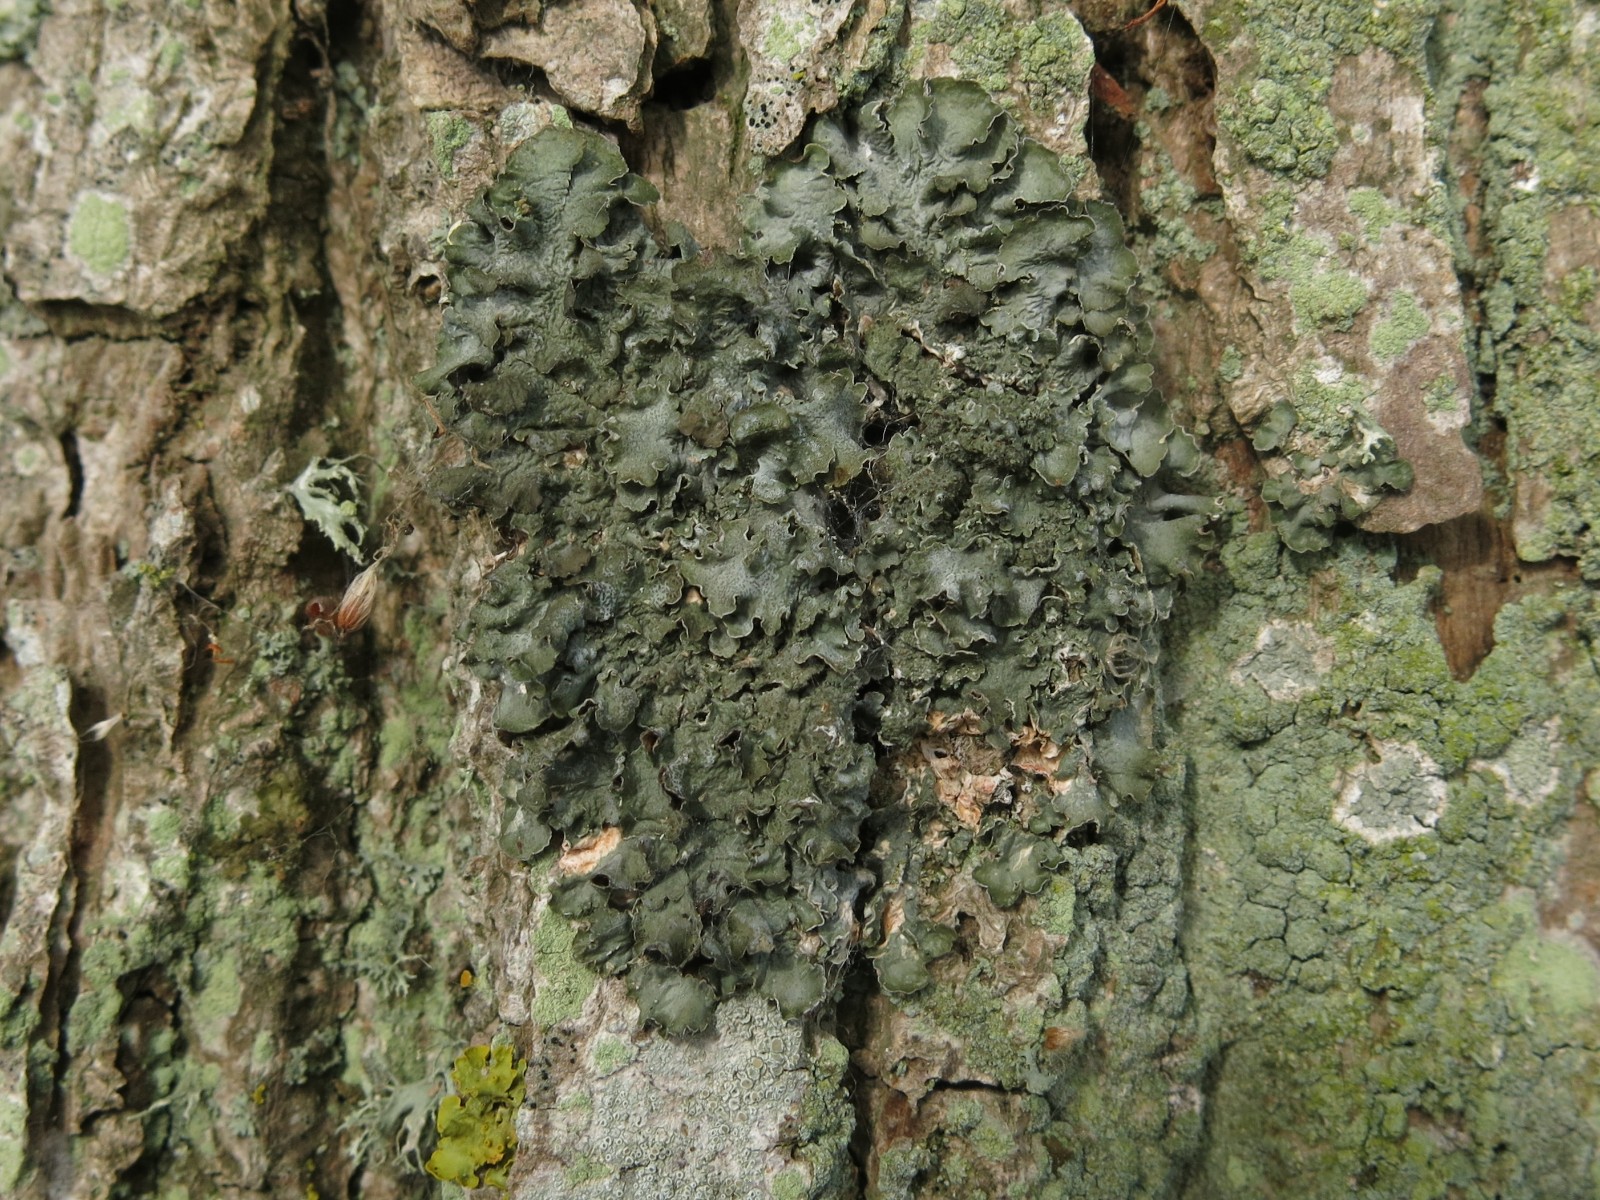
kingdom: Fungi
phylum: Ascomycota
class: Lecanoromycetes
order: Lecanorales
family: Parmeliaceae
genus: Pleurosticta
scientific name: Pleurosticta acetabulum
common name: stor skållav
